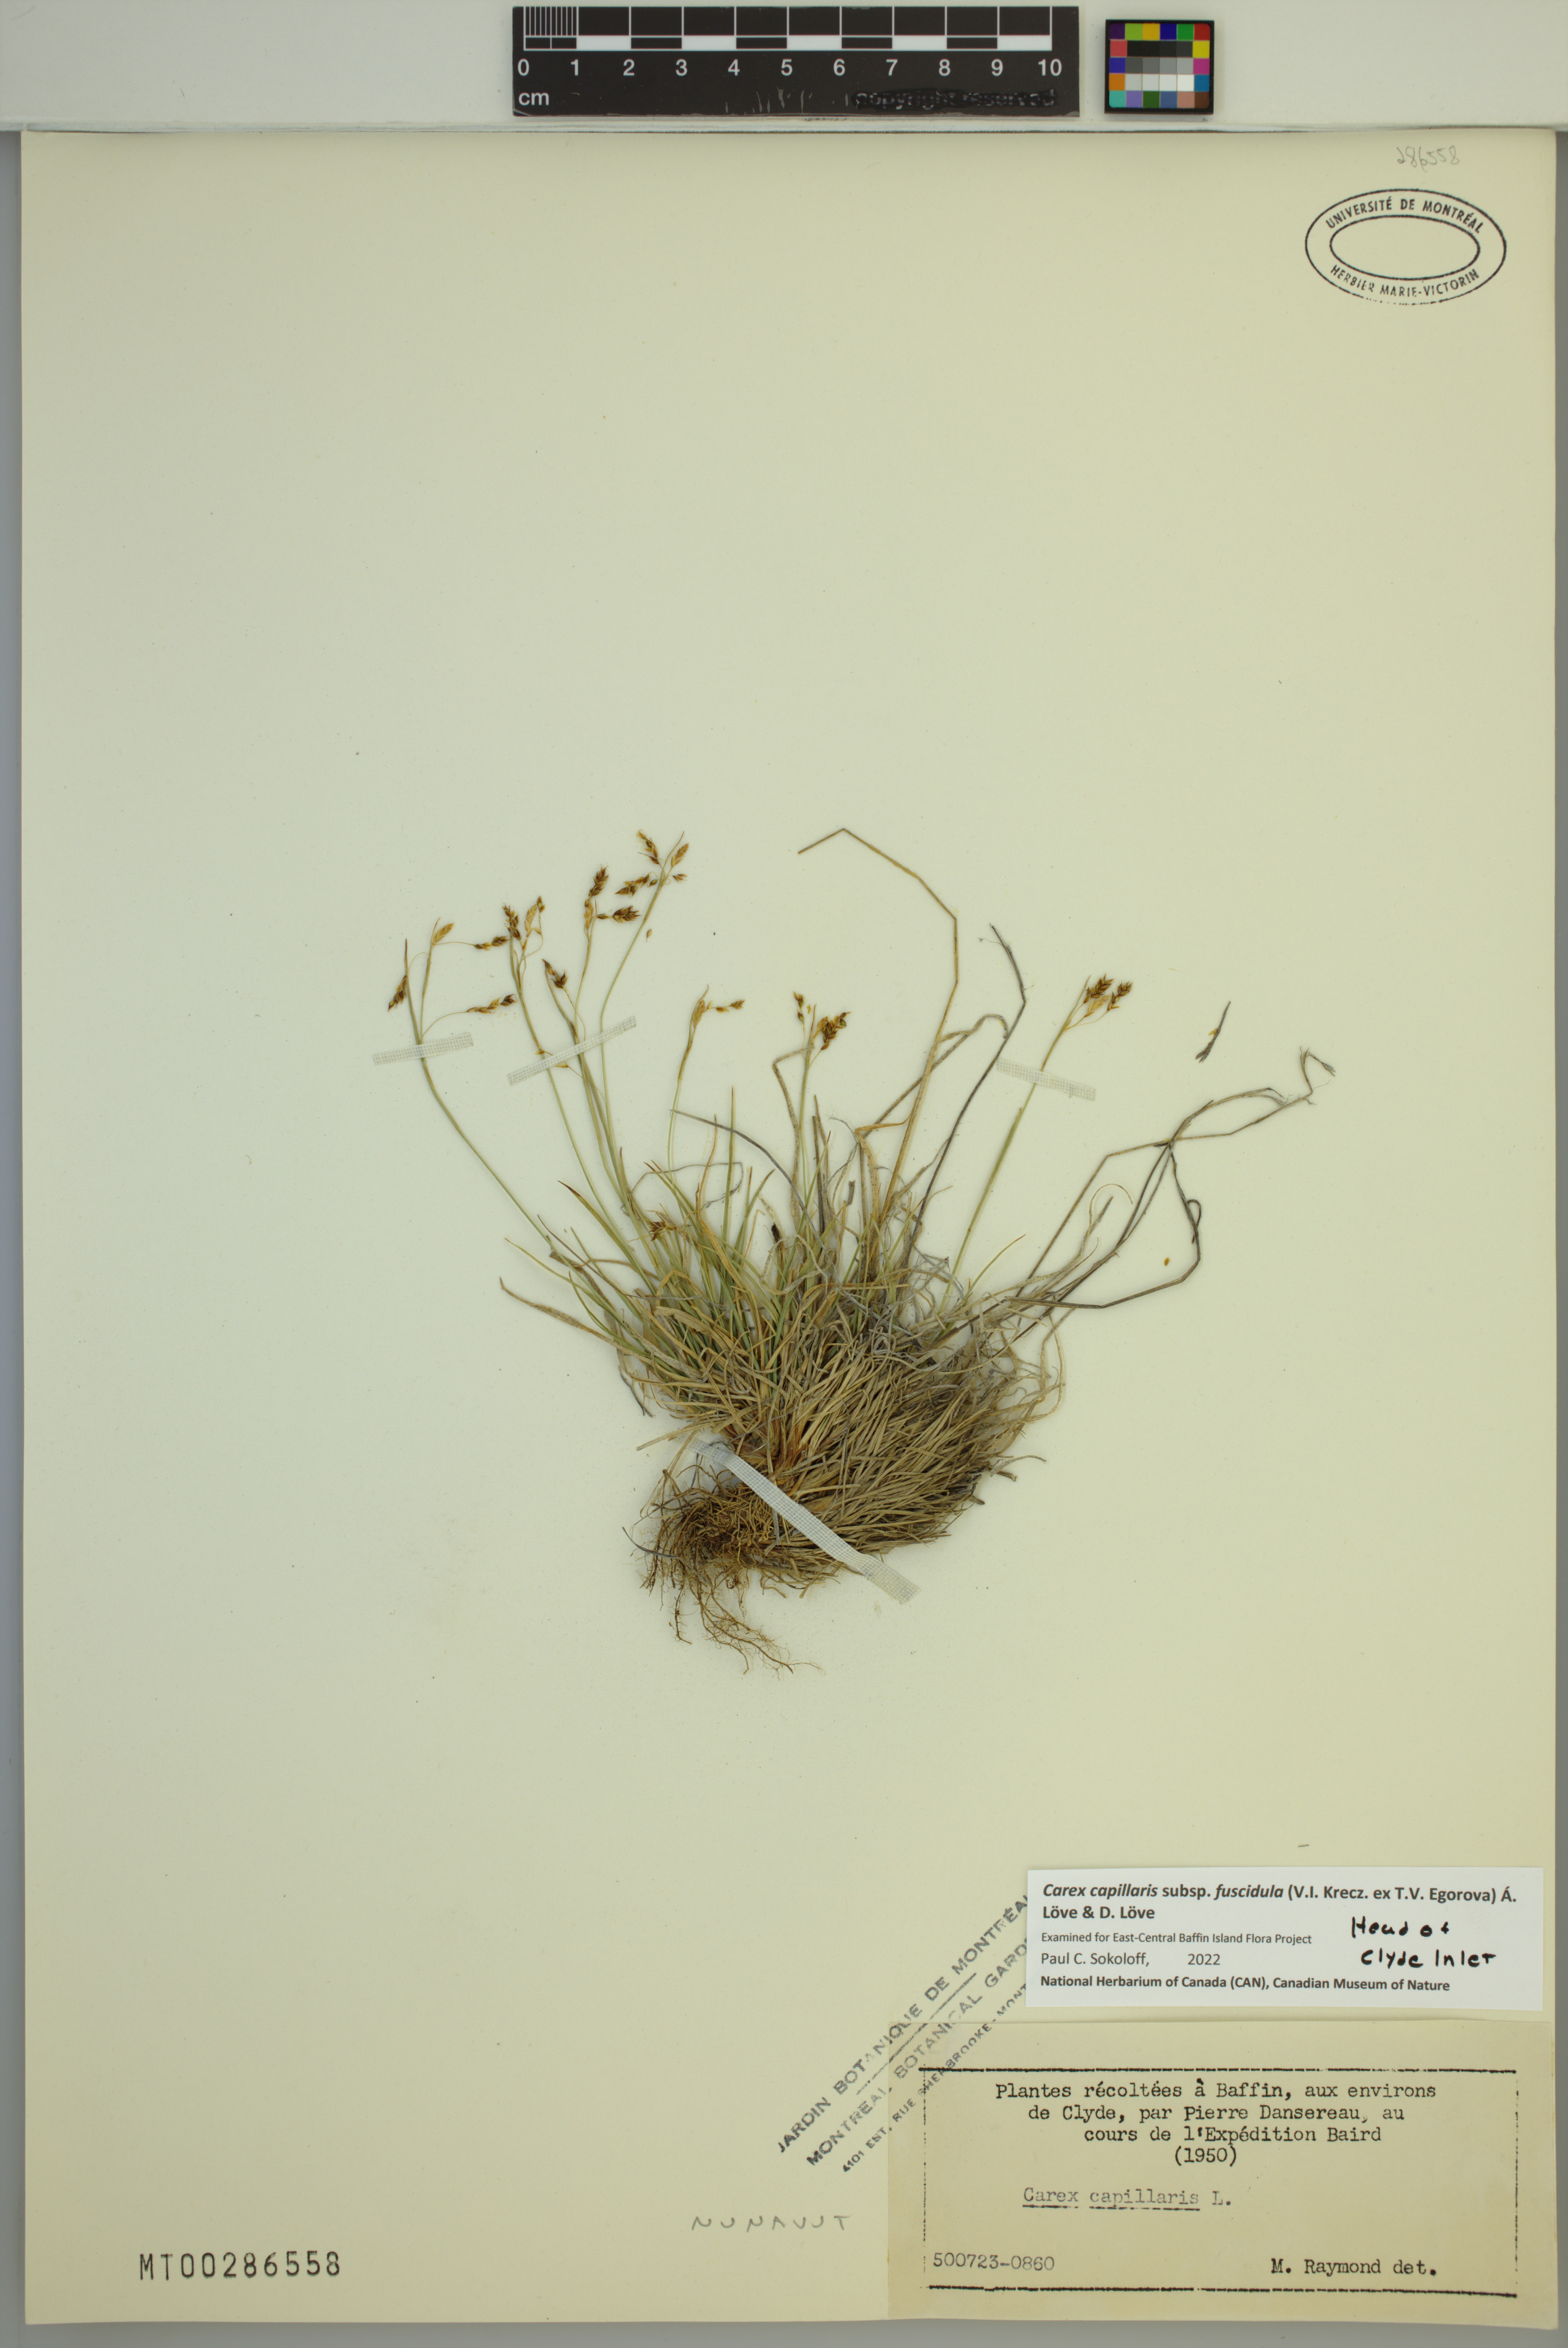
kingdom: Plantae
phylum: Tracheophyta
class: Liliopsida
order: Poales
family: Cyperaceae
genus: Carex
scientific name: Carex capillaris
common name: Hair sedge
